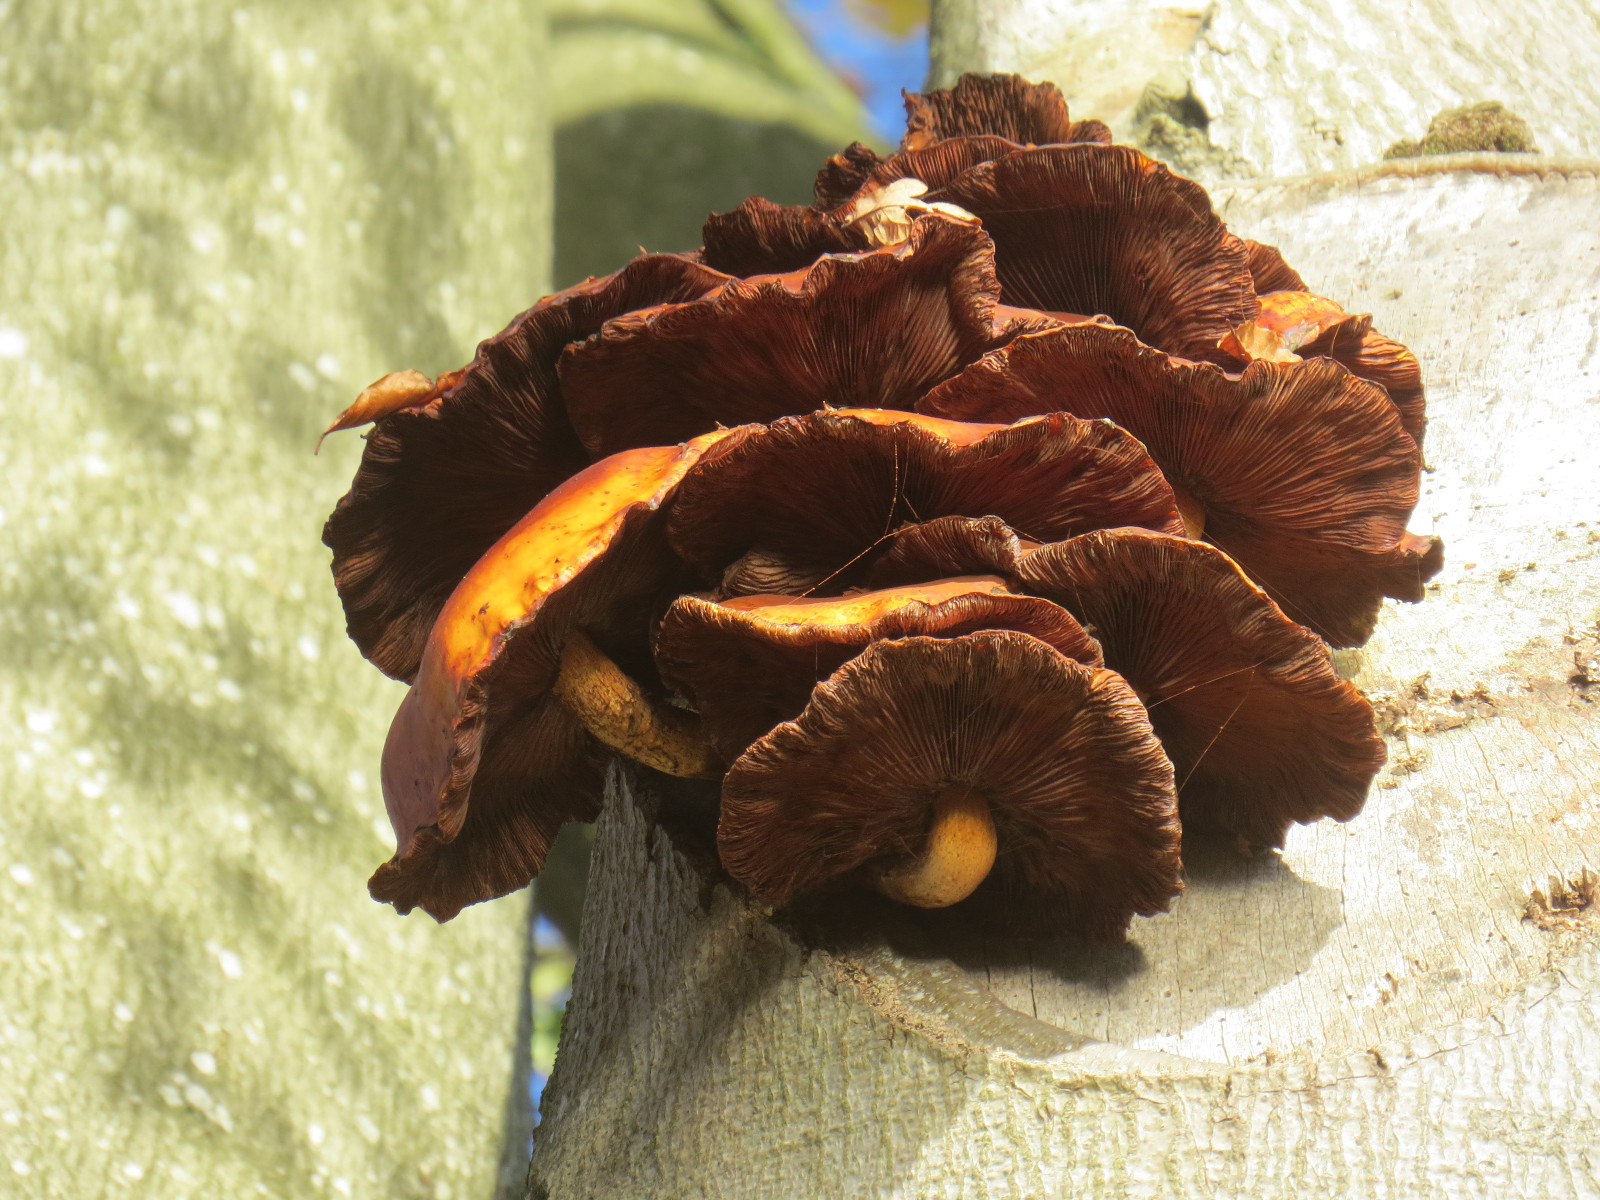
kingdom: Fungi
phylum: Basidiomycota
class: Agaricomycetes
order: Agaricales
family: Strophariaceae
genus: Pholiota
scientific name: Pholiota adiposa
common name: højtsiddende skælhat
